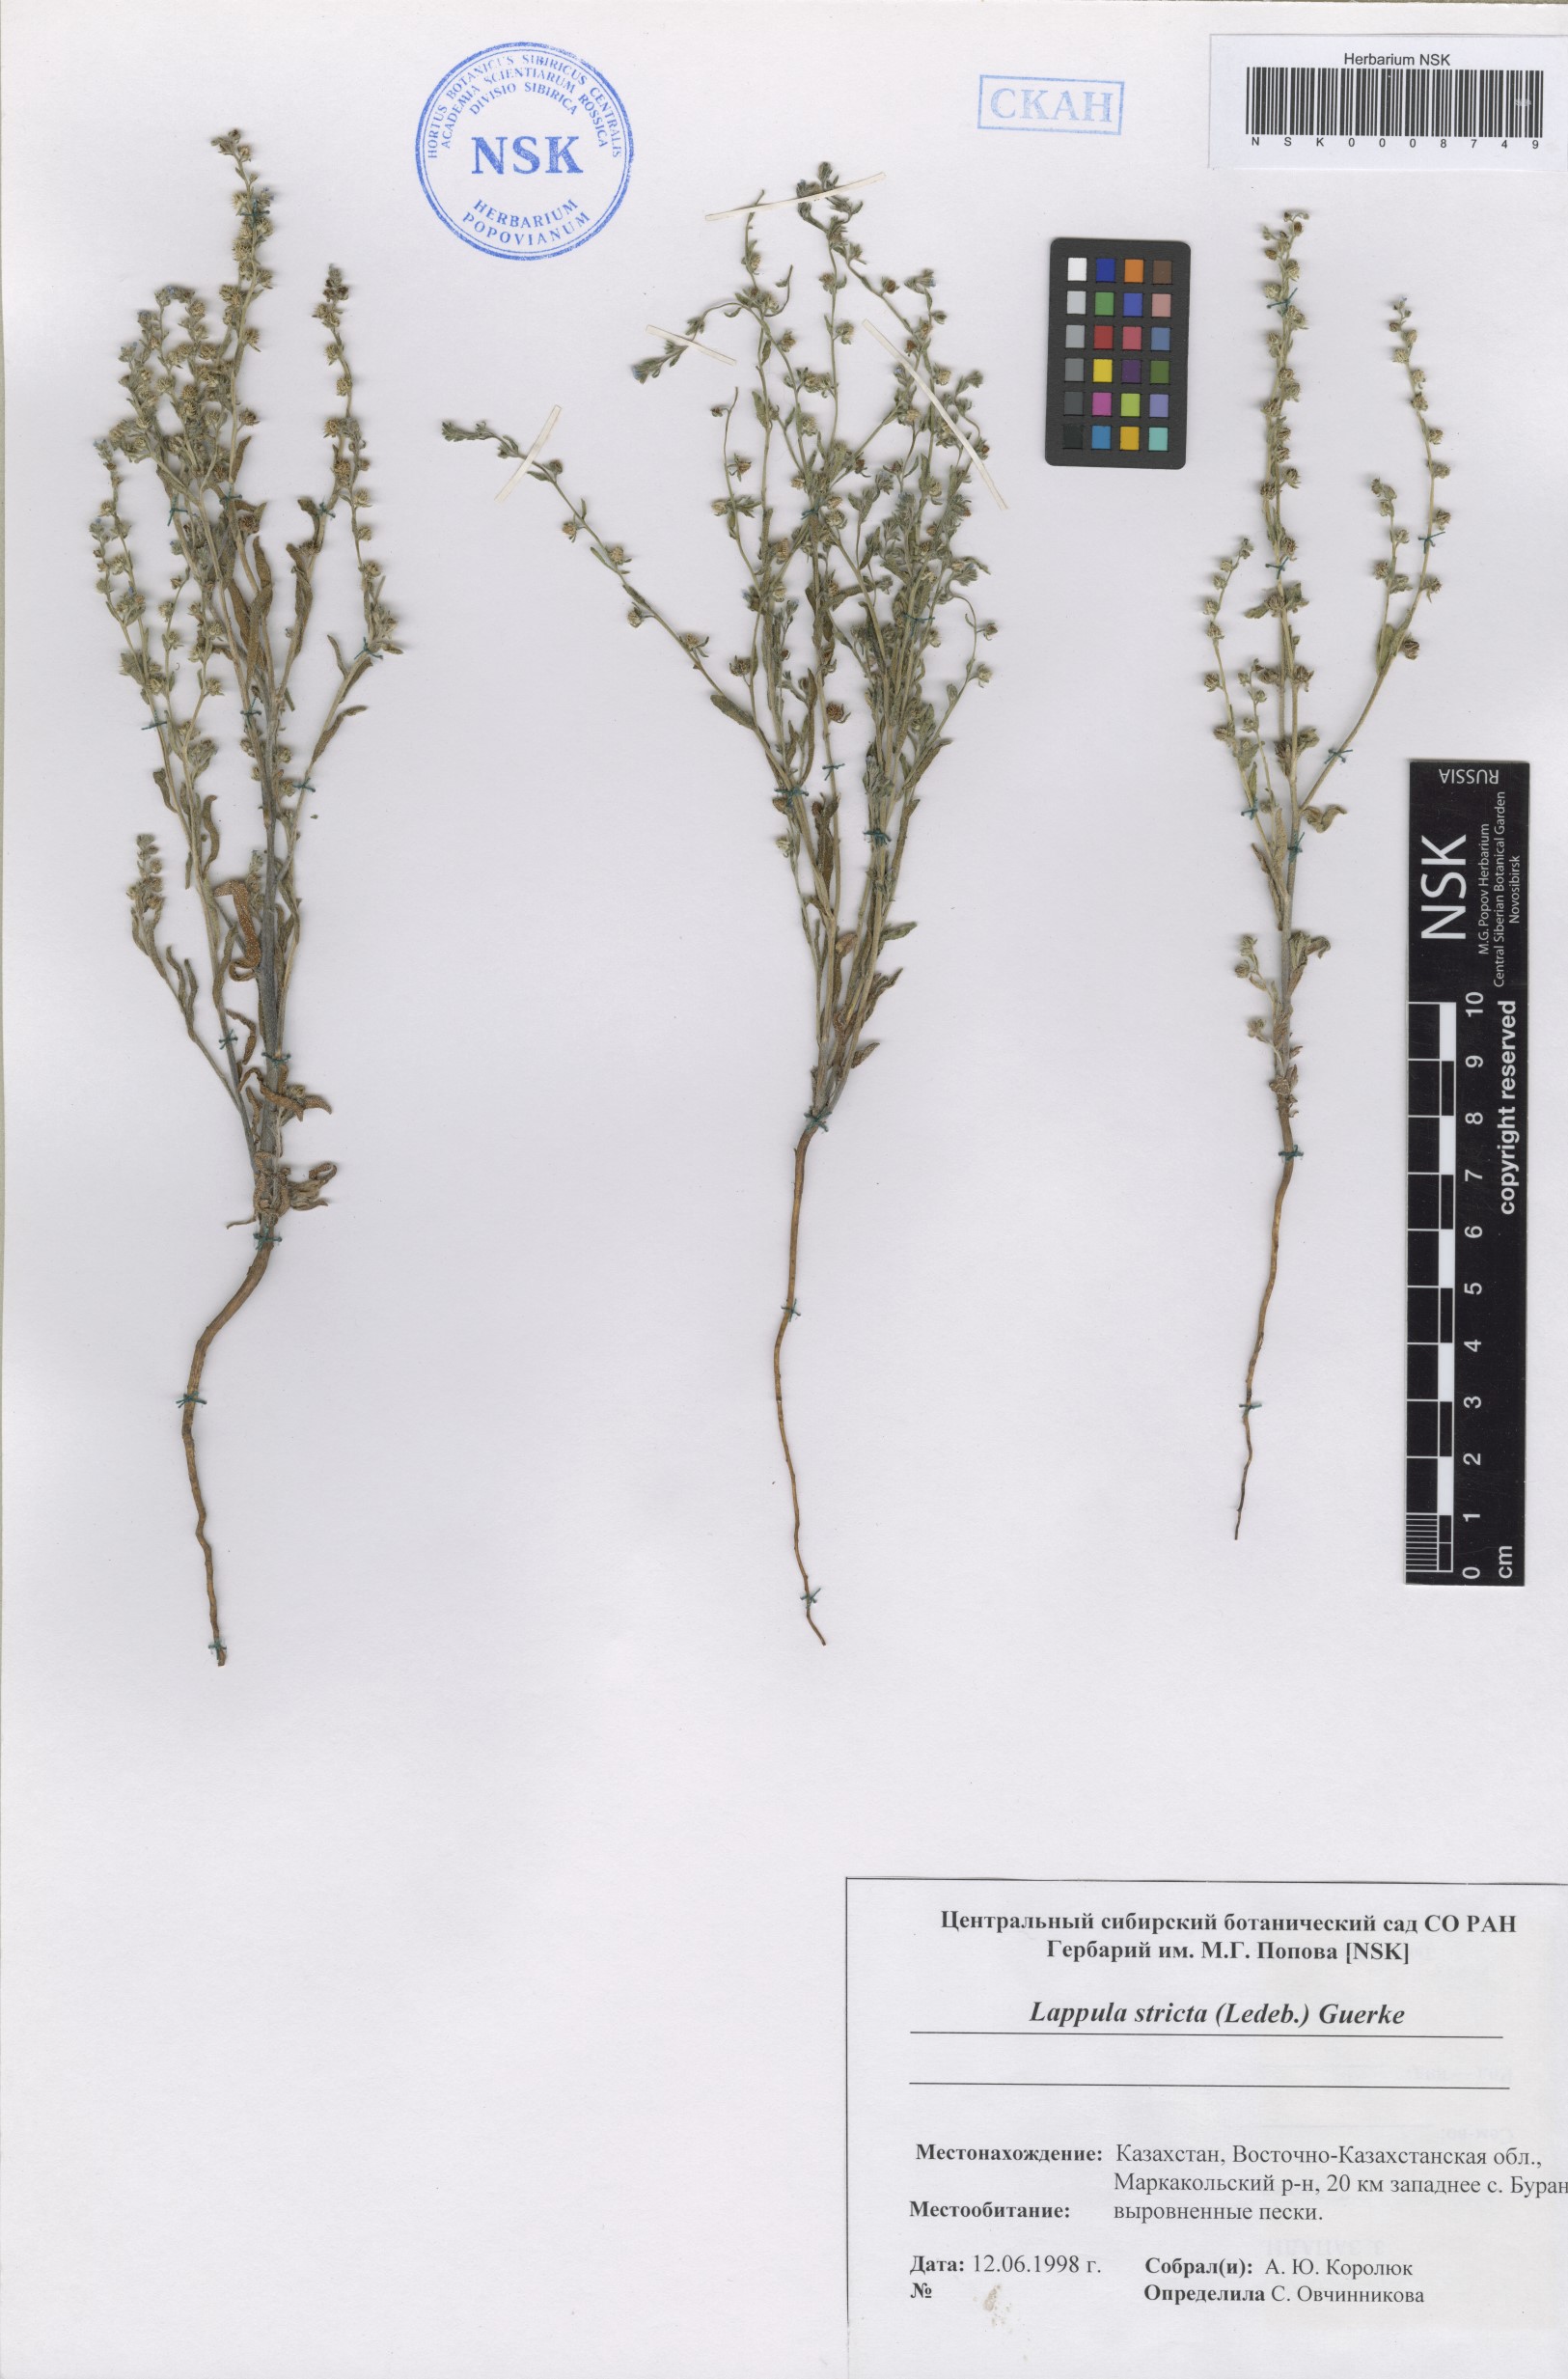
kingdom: Plantae
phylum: Tracheophyta
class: Magnoliopsida
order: Boraginales
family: Boraginaceae
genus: Lappula
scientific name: Lappula stricta
